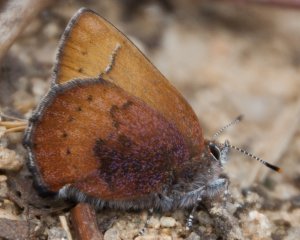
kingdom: Animalia
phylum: Arthropoda
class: Insecta
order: Lepidoptera
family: Lycaenidae
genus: Incisalia
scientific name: Incisalia irioides
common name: Brown Elfin
